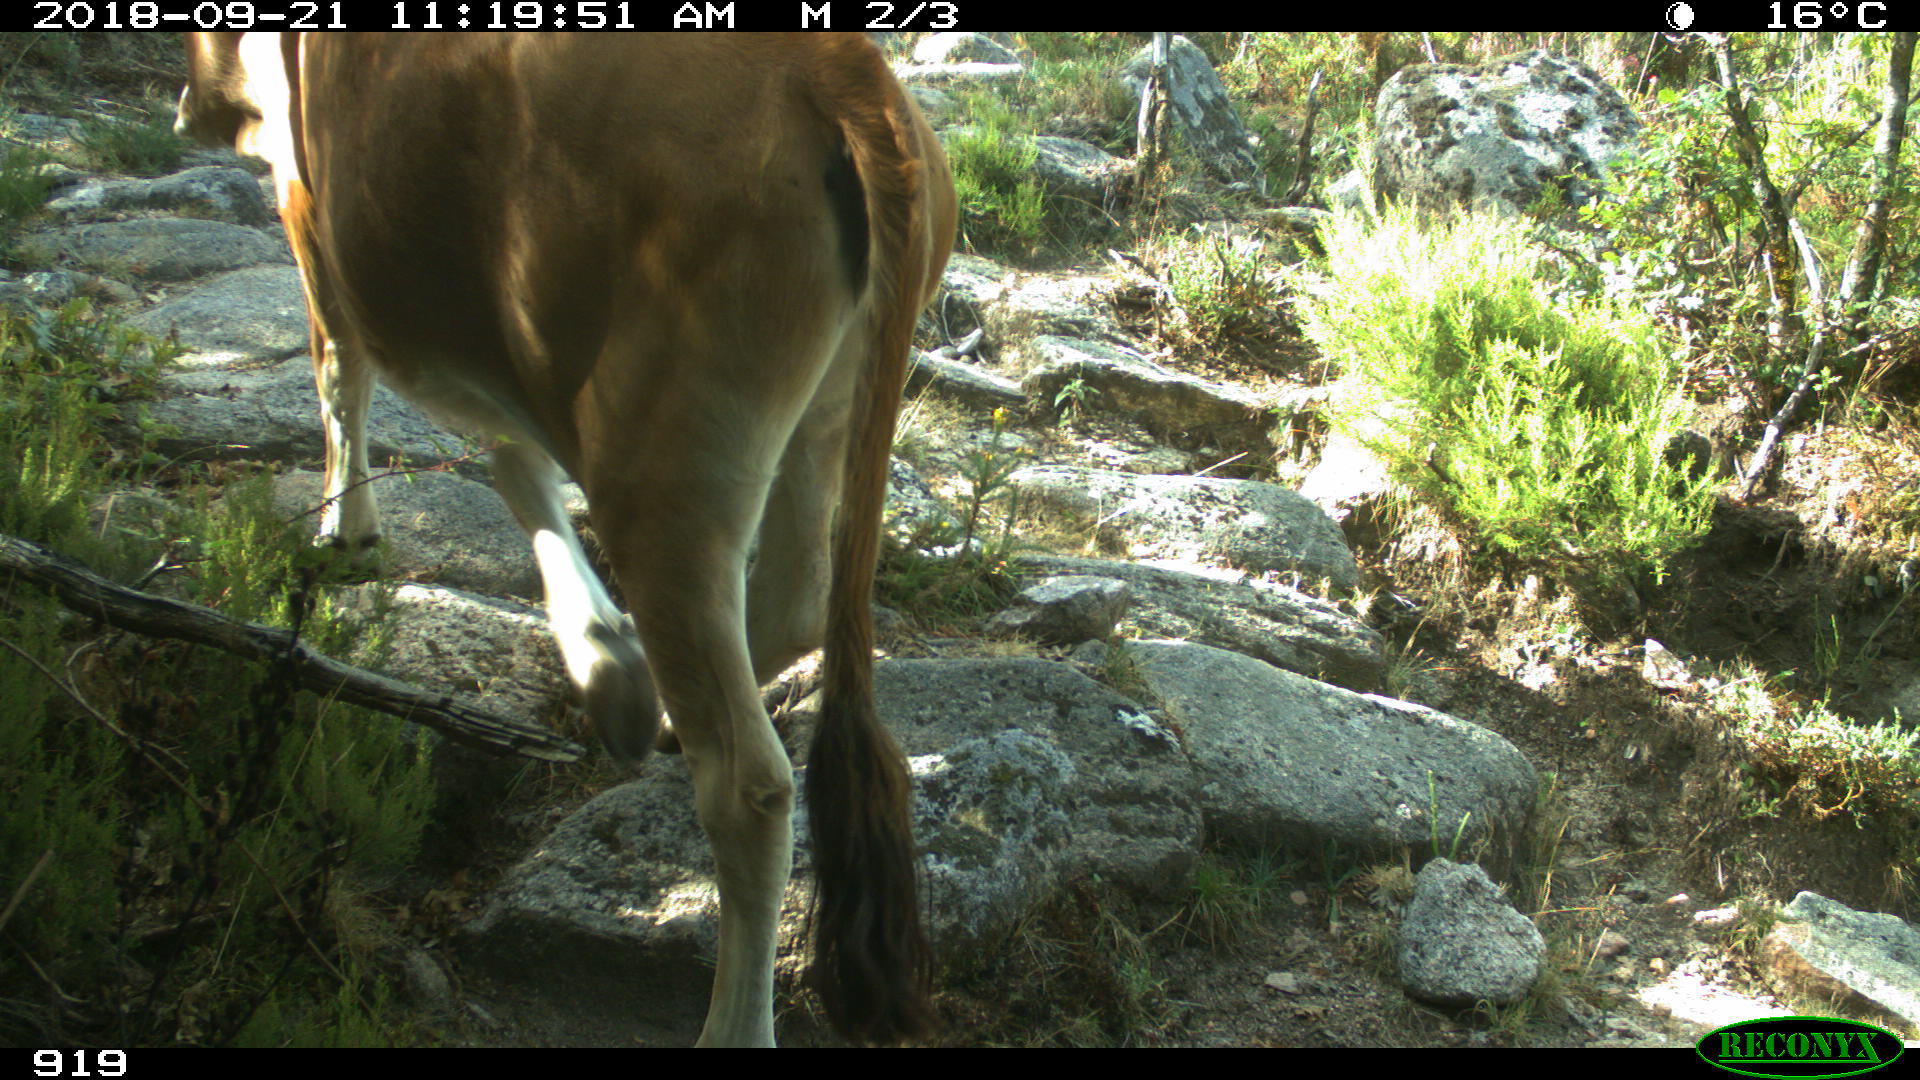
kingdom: Animalia
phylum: Chordata
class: Mammalia
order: Artiodactyla
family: Bovidae
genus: Bos
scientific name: Bos taurus
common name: Domesticated cattle
